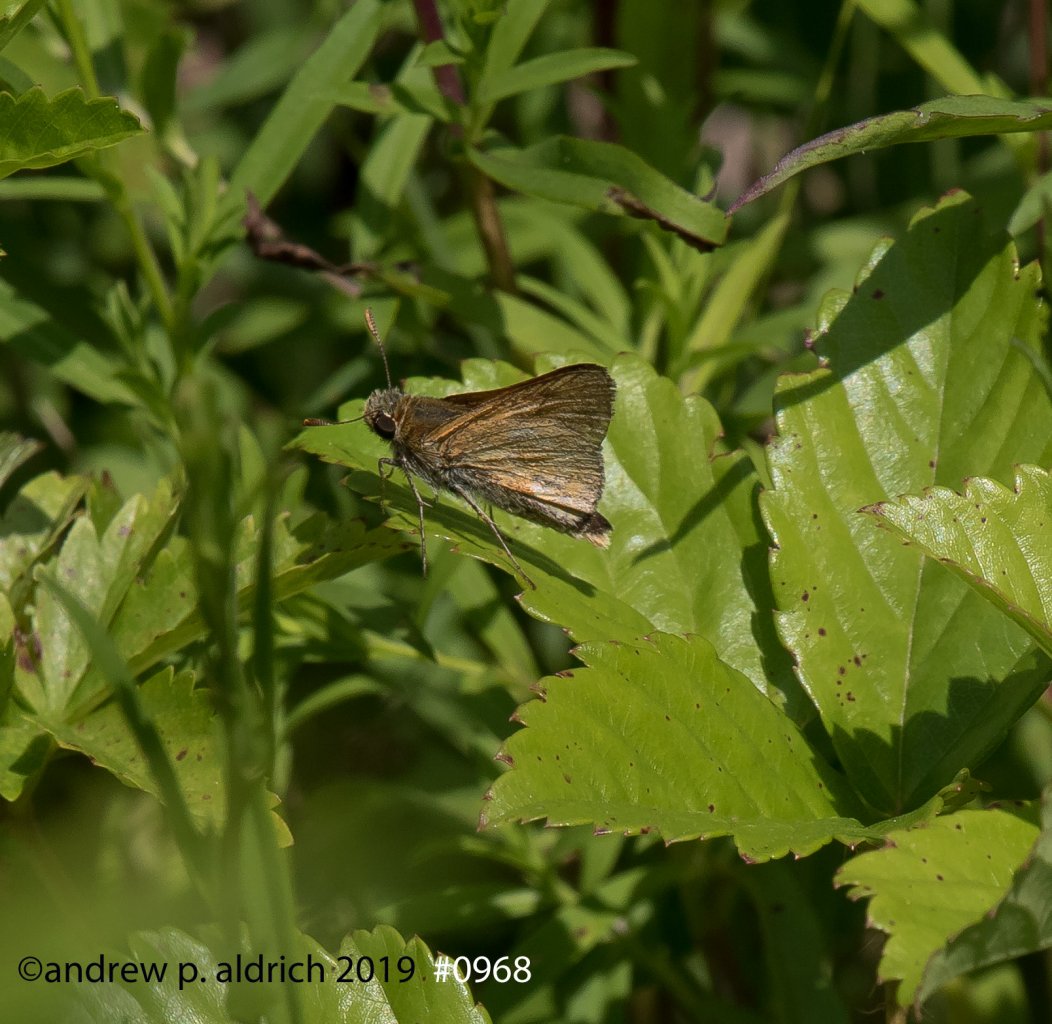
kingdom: Animalia
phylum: Arthropoda
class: Insecta
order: Lepidoptera
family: Hesperiidae
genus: Euphyes
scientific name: Euphyes
